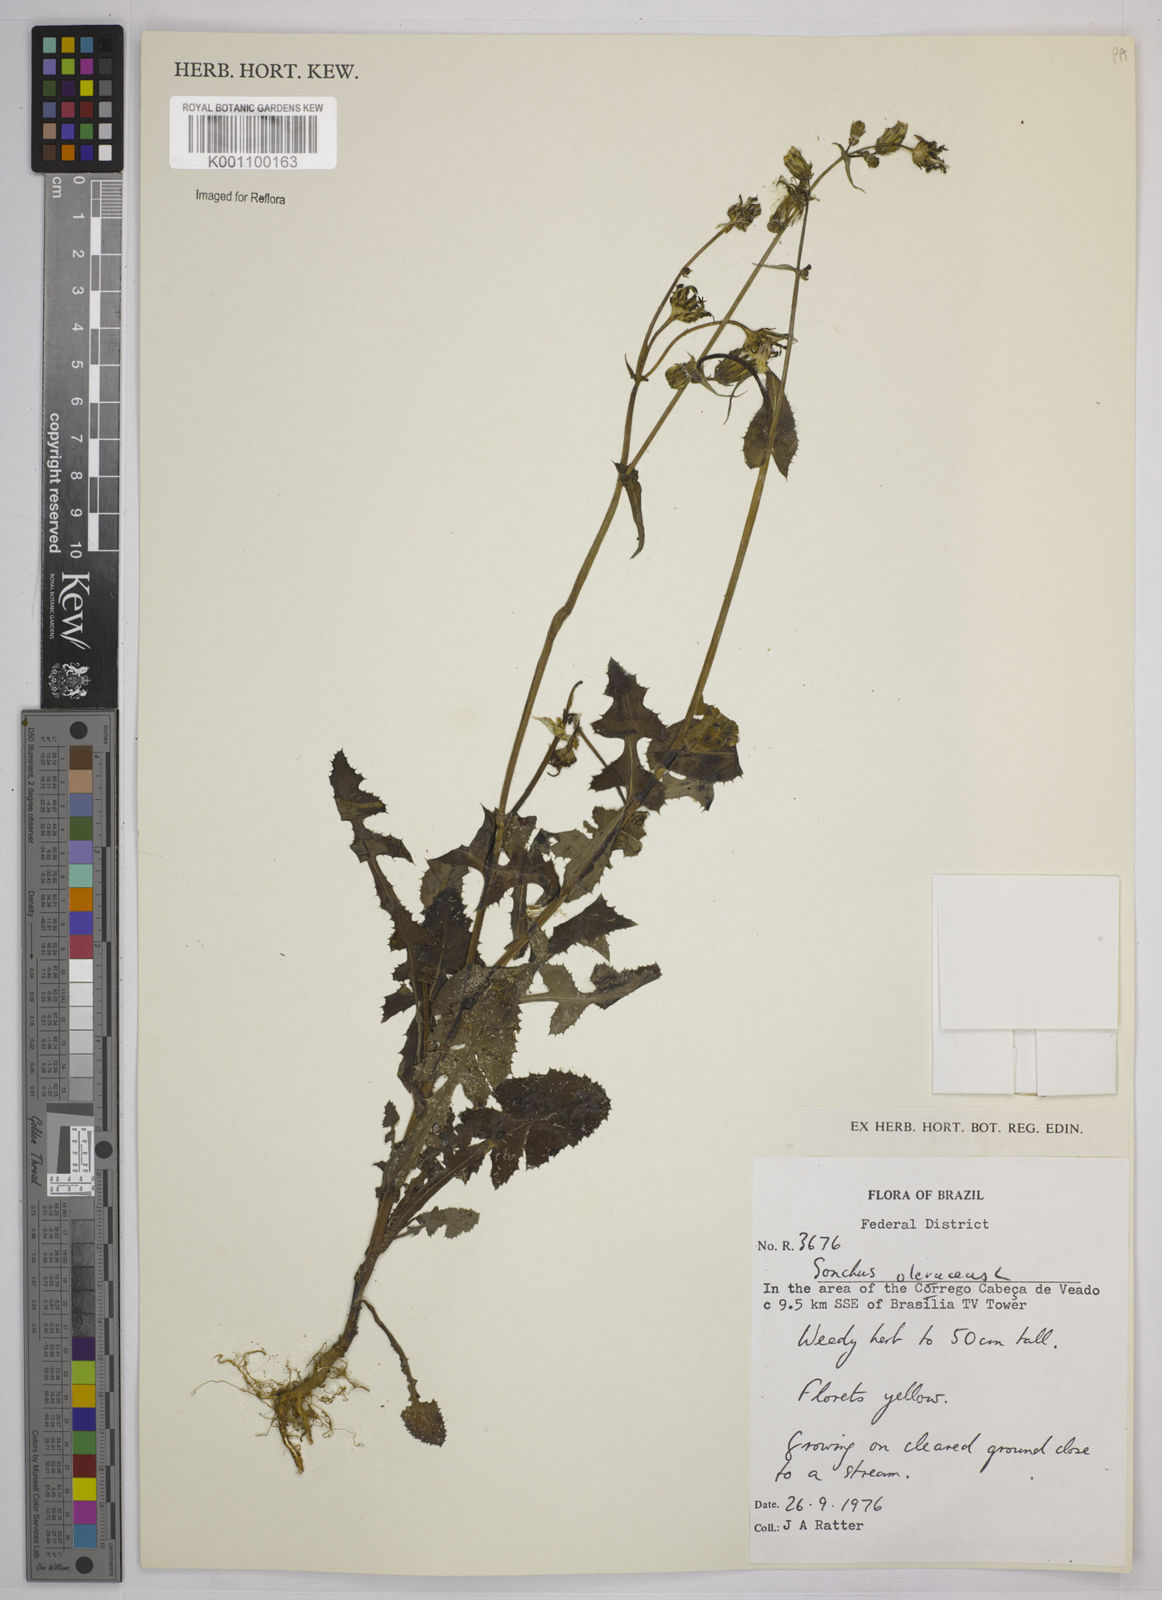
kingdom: Plantae
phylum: Tracheophyta
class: Magnoliopsida
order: Asterales
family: Asteraceae
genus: Sonchus
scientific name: Sonchus oleraceus
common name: Common sowthistle
